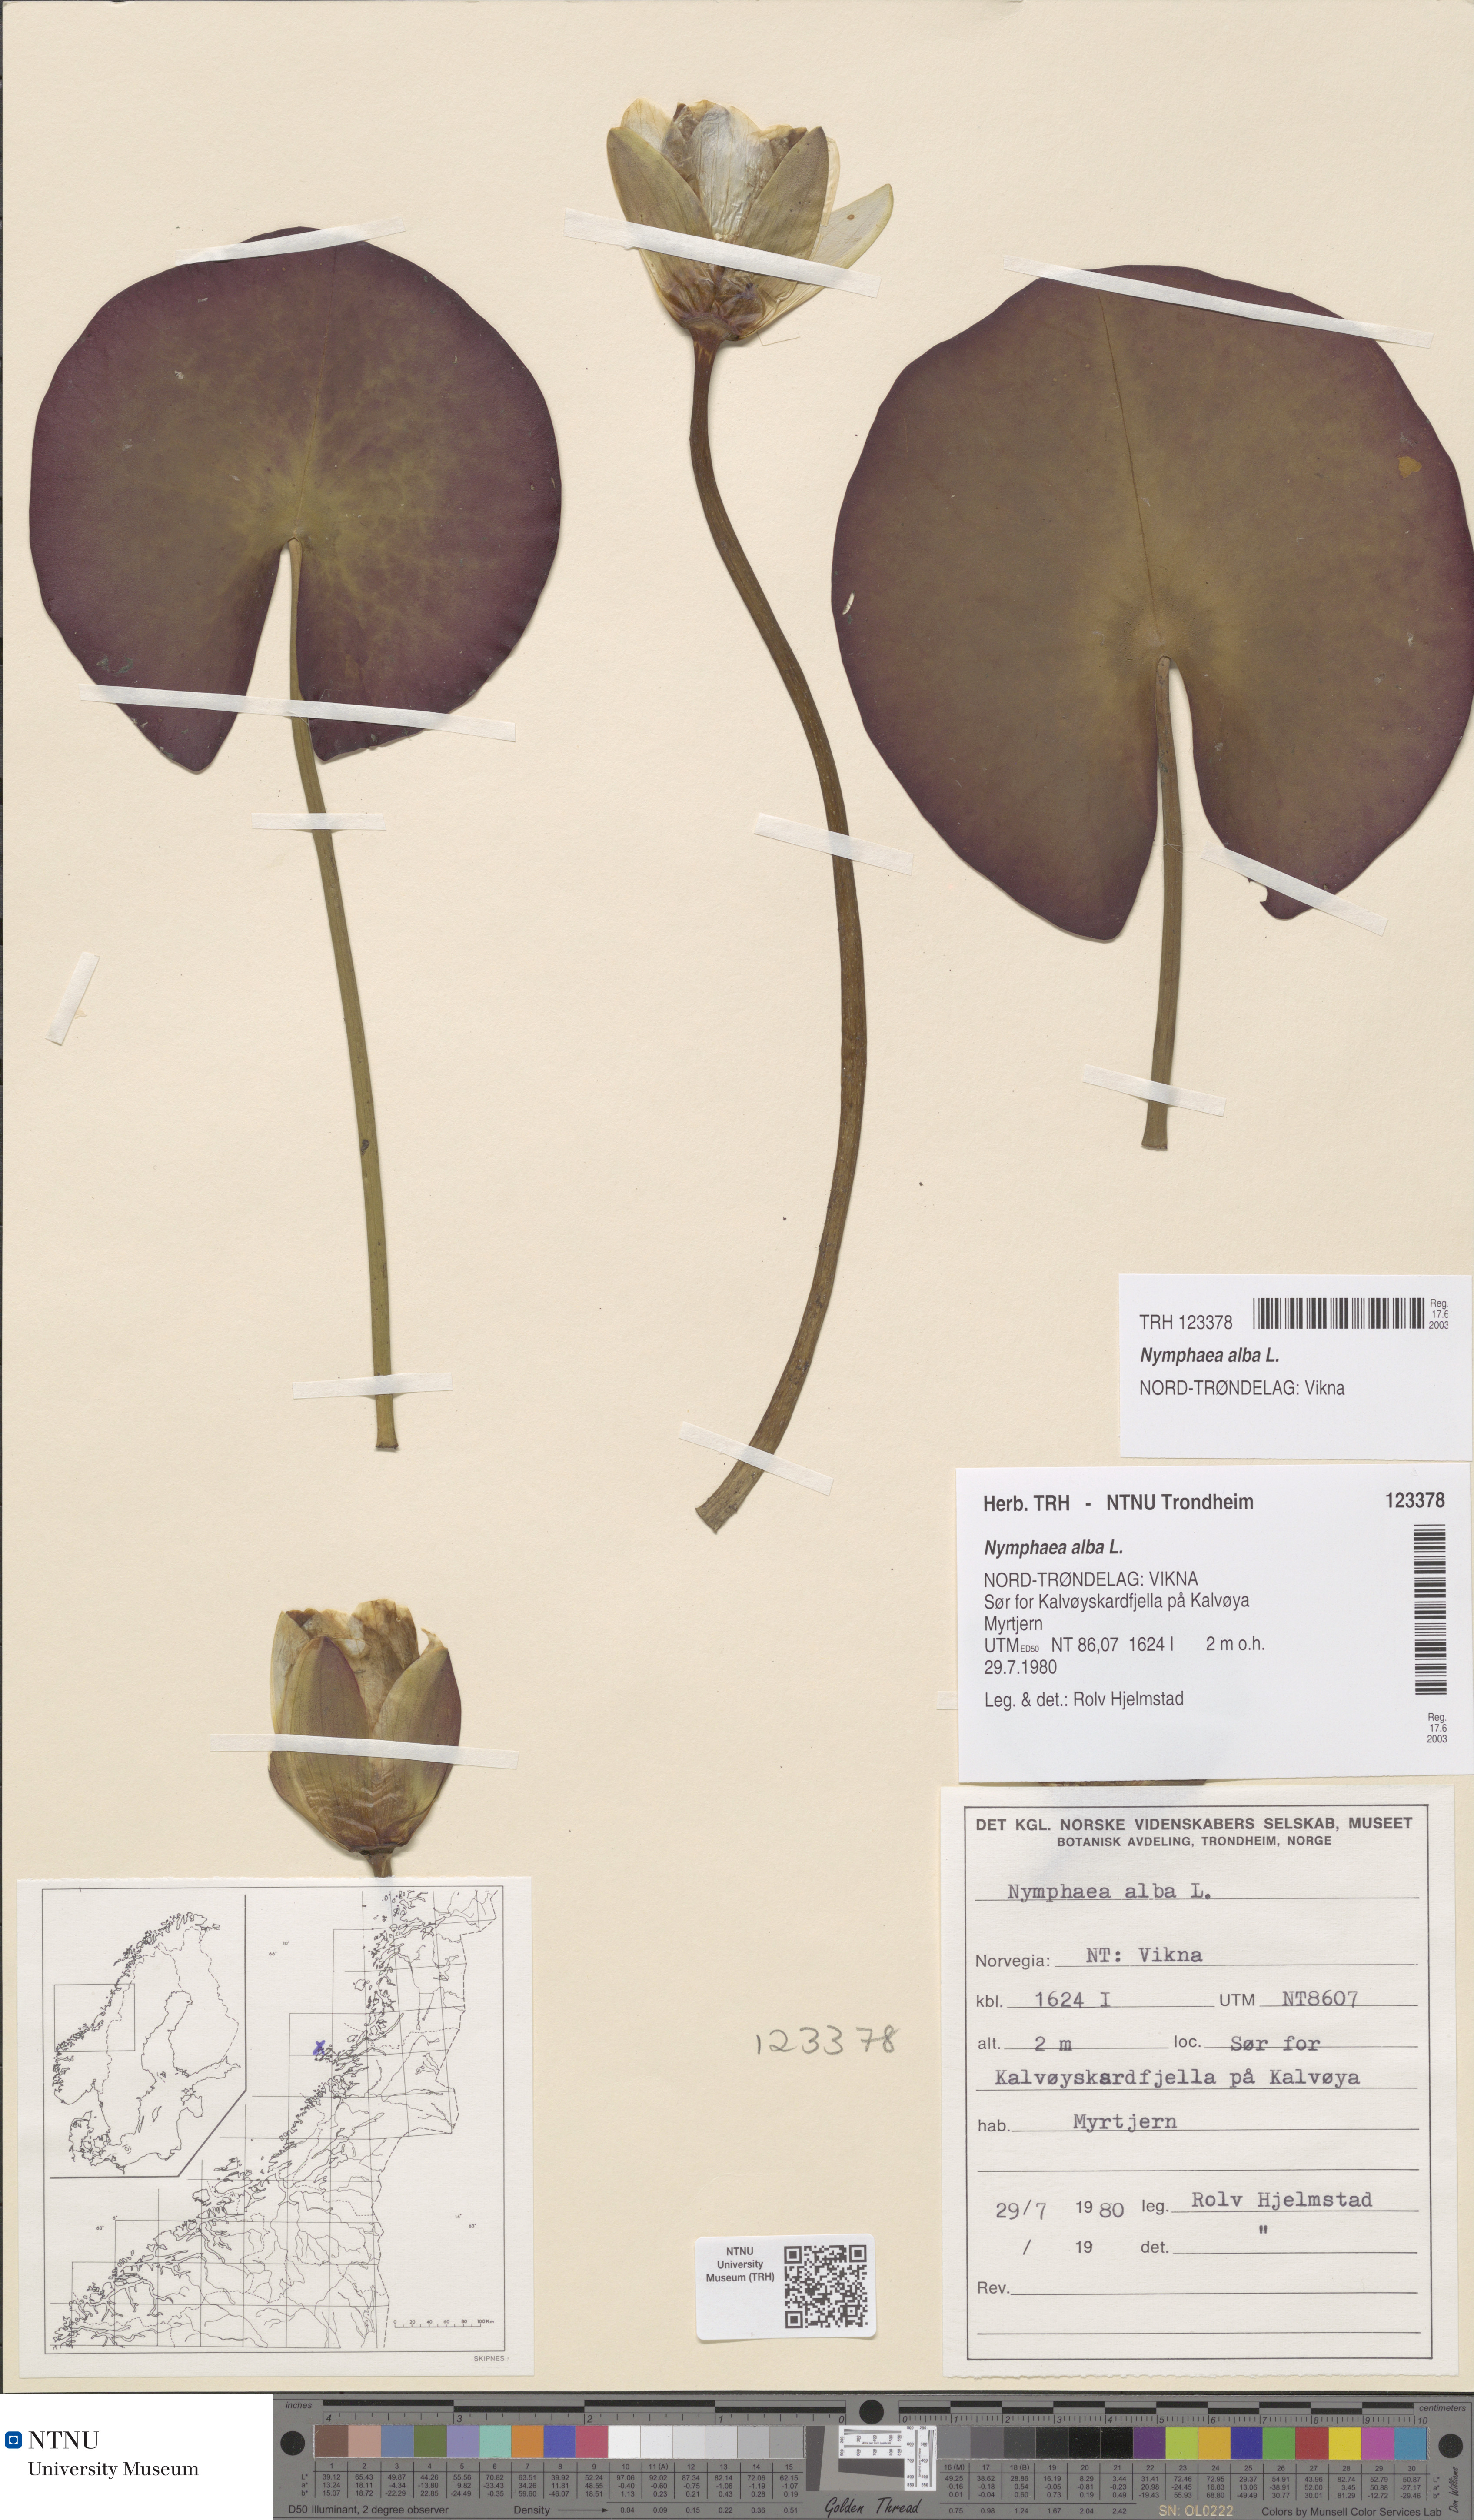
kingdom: Plantae
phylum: Tracheophyta
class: Magnoliopsida
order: Nymphaeales
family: Nymphaeaceae
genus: Nymphaea
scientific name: Nymphaea alba
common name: White water-lily
